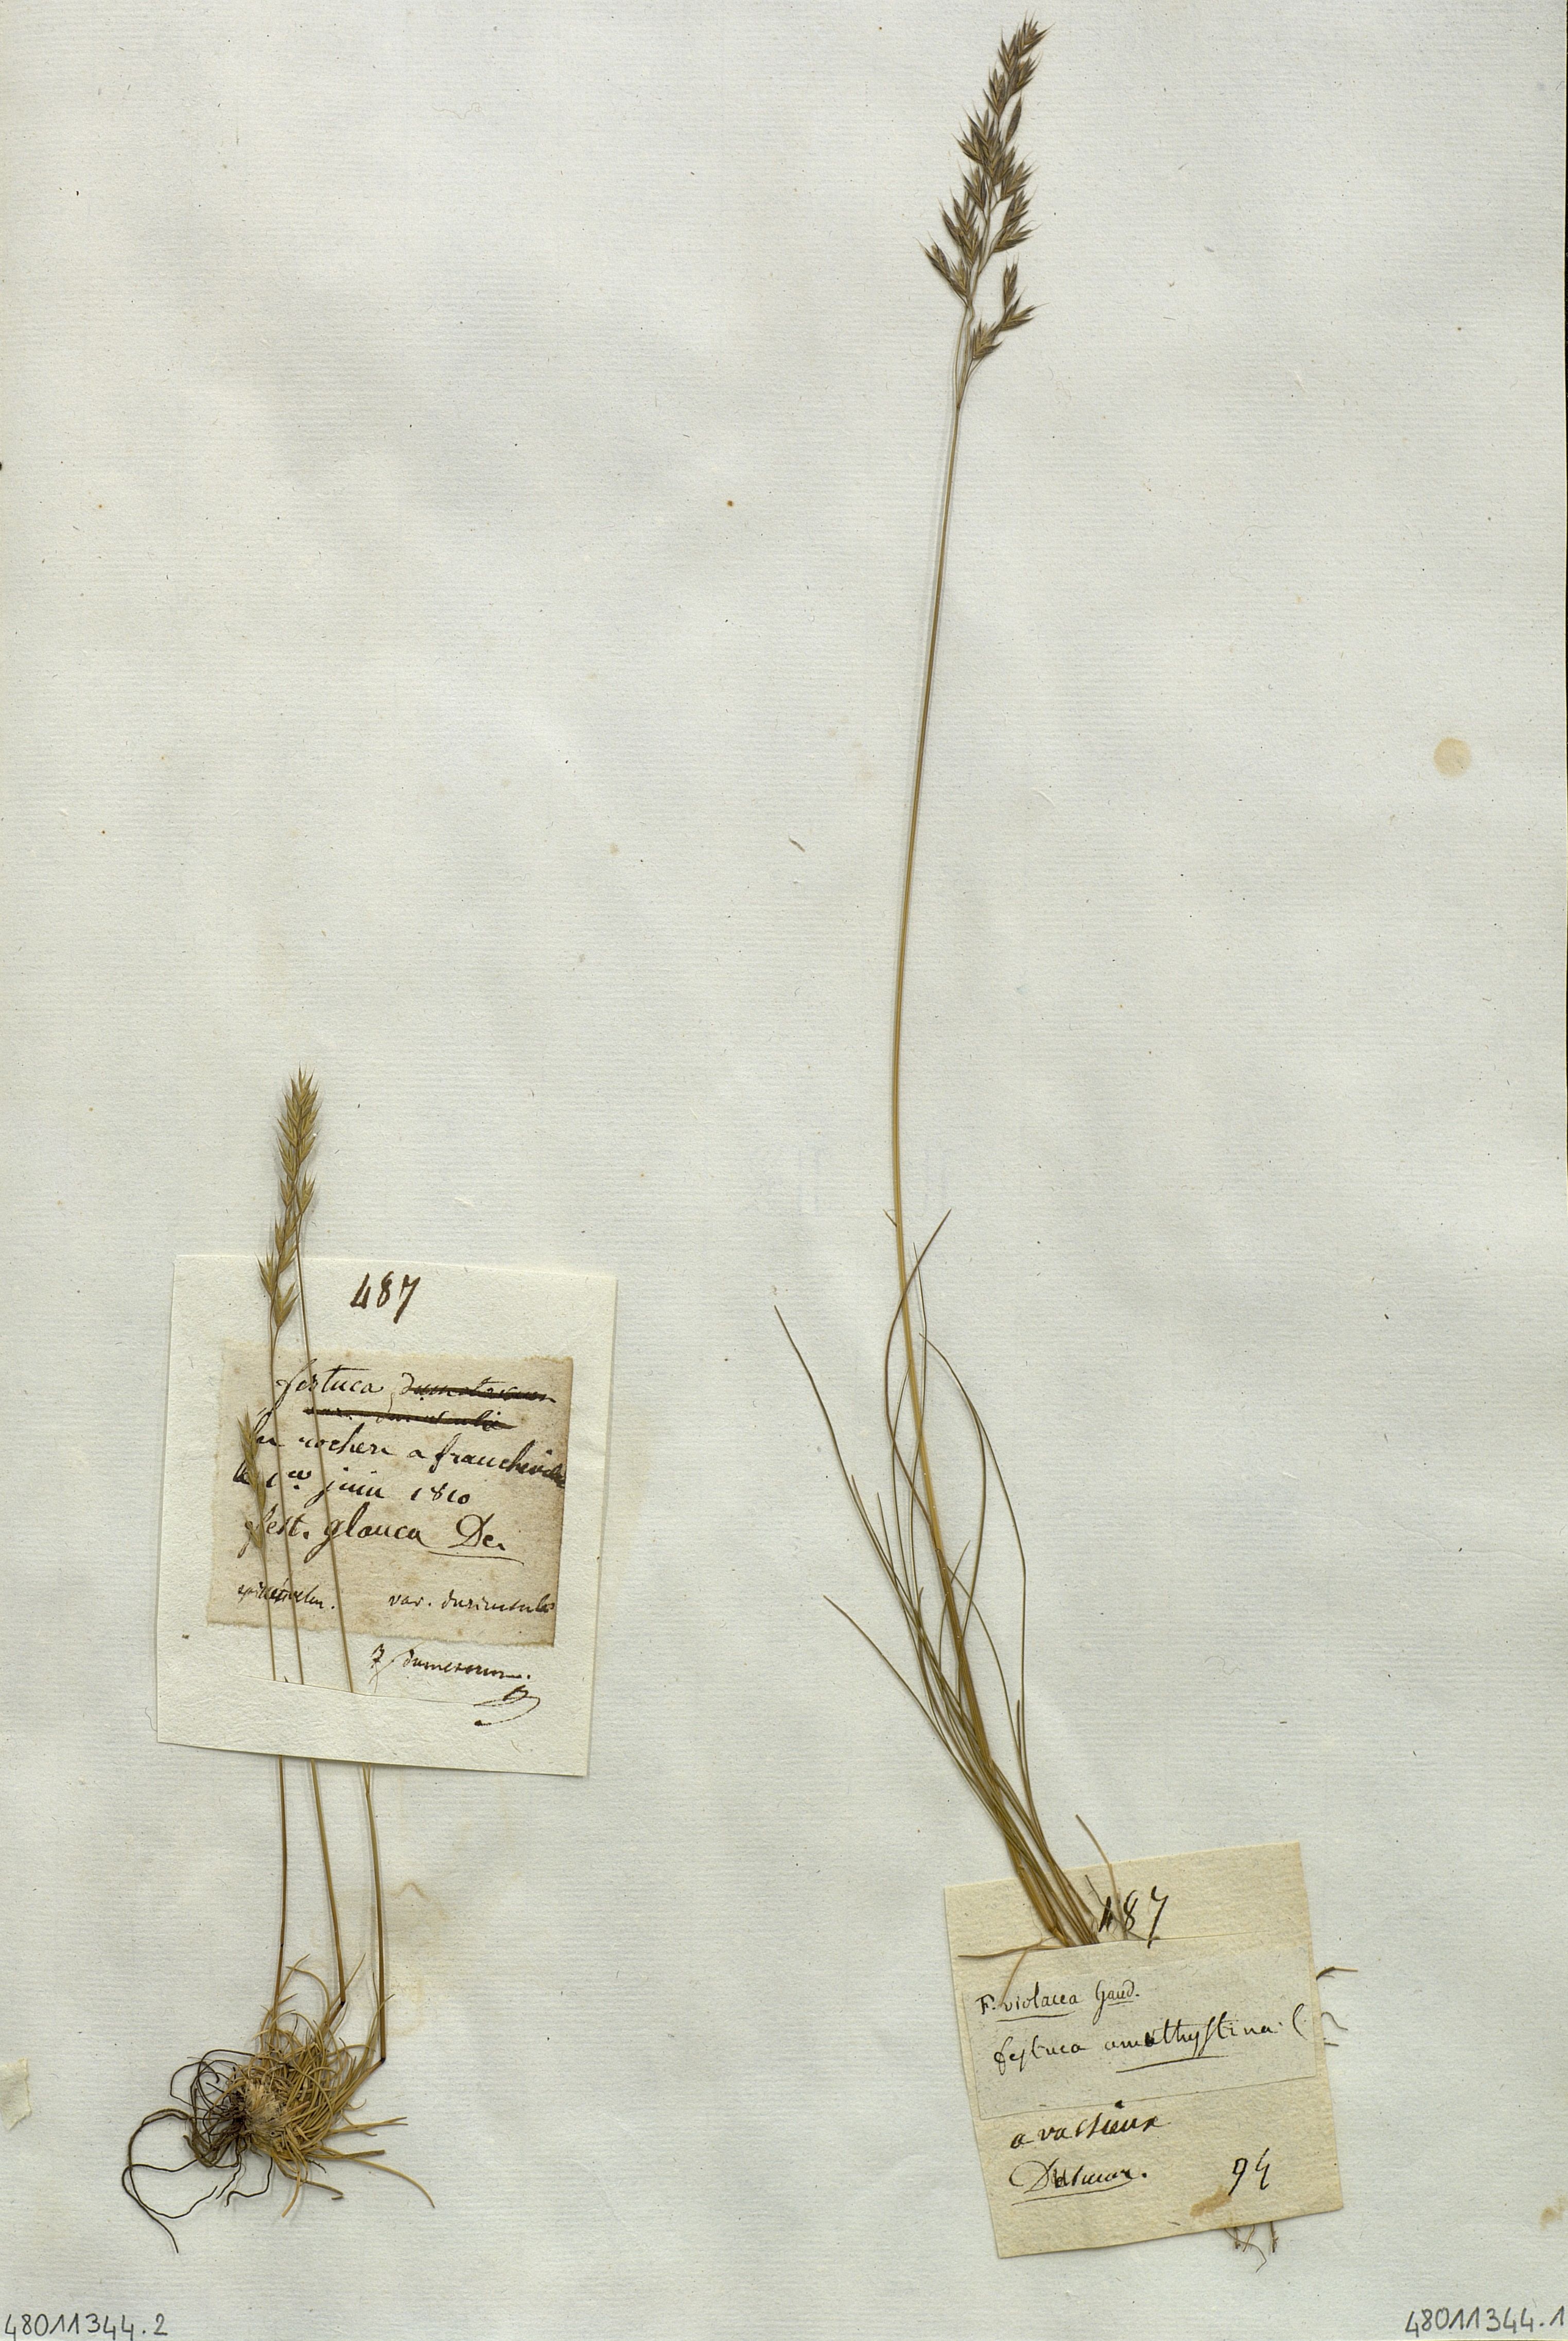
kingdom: Plantae
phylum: Tracheophyta
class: Liliopsida
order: Poales
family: Poaceae
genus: Festuca
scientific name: Festuca
